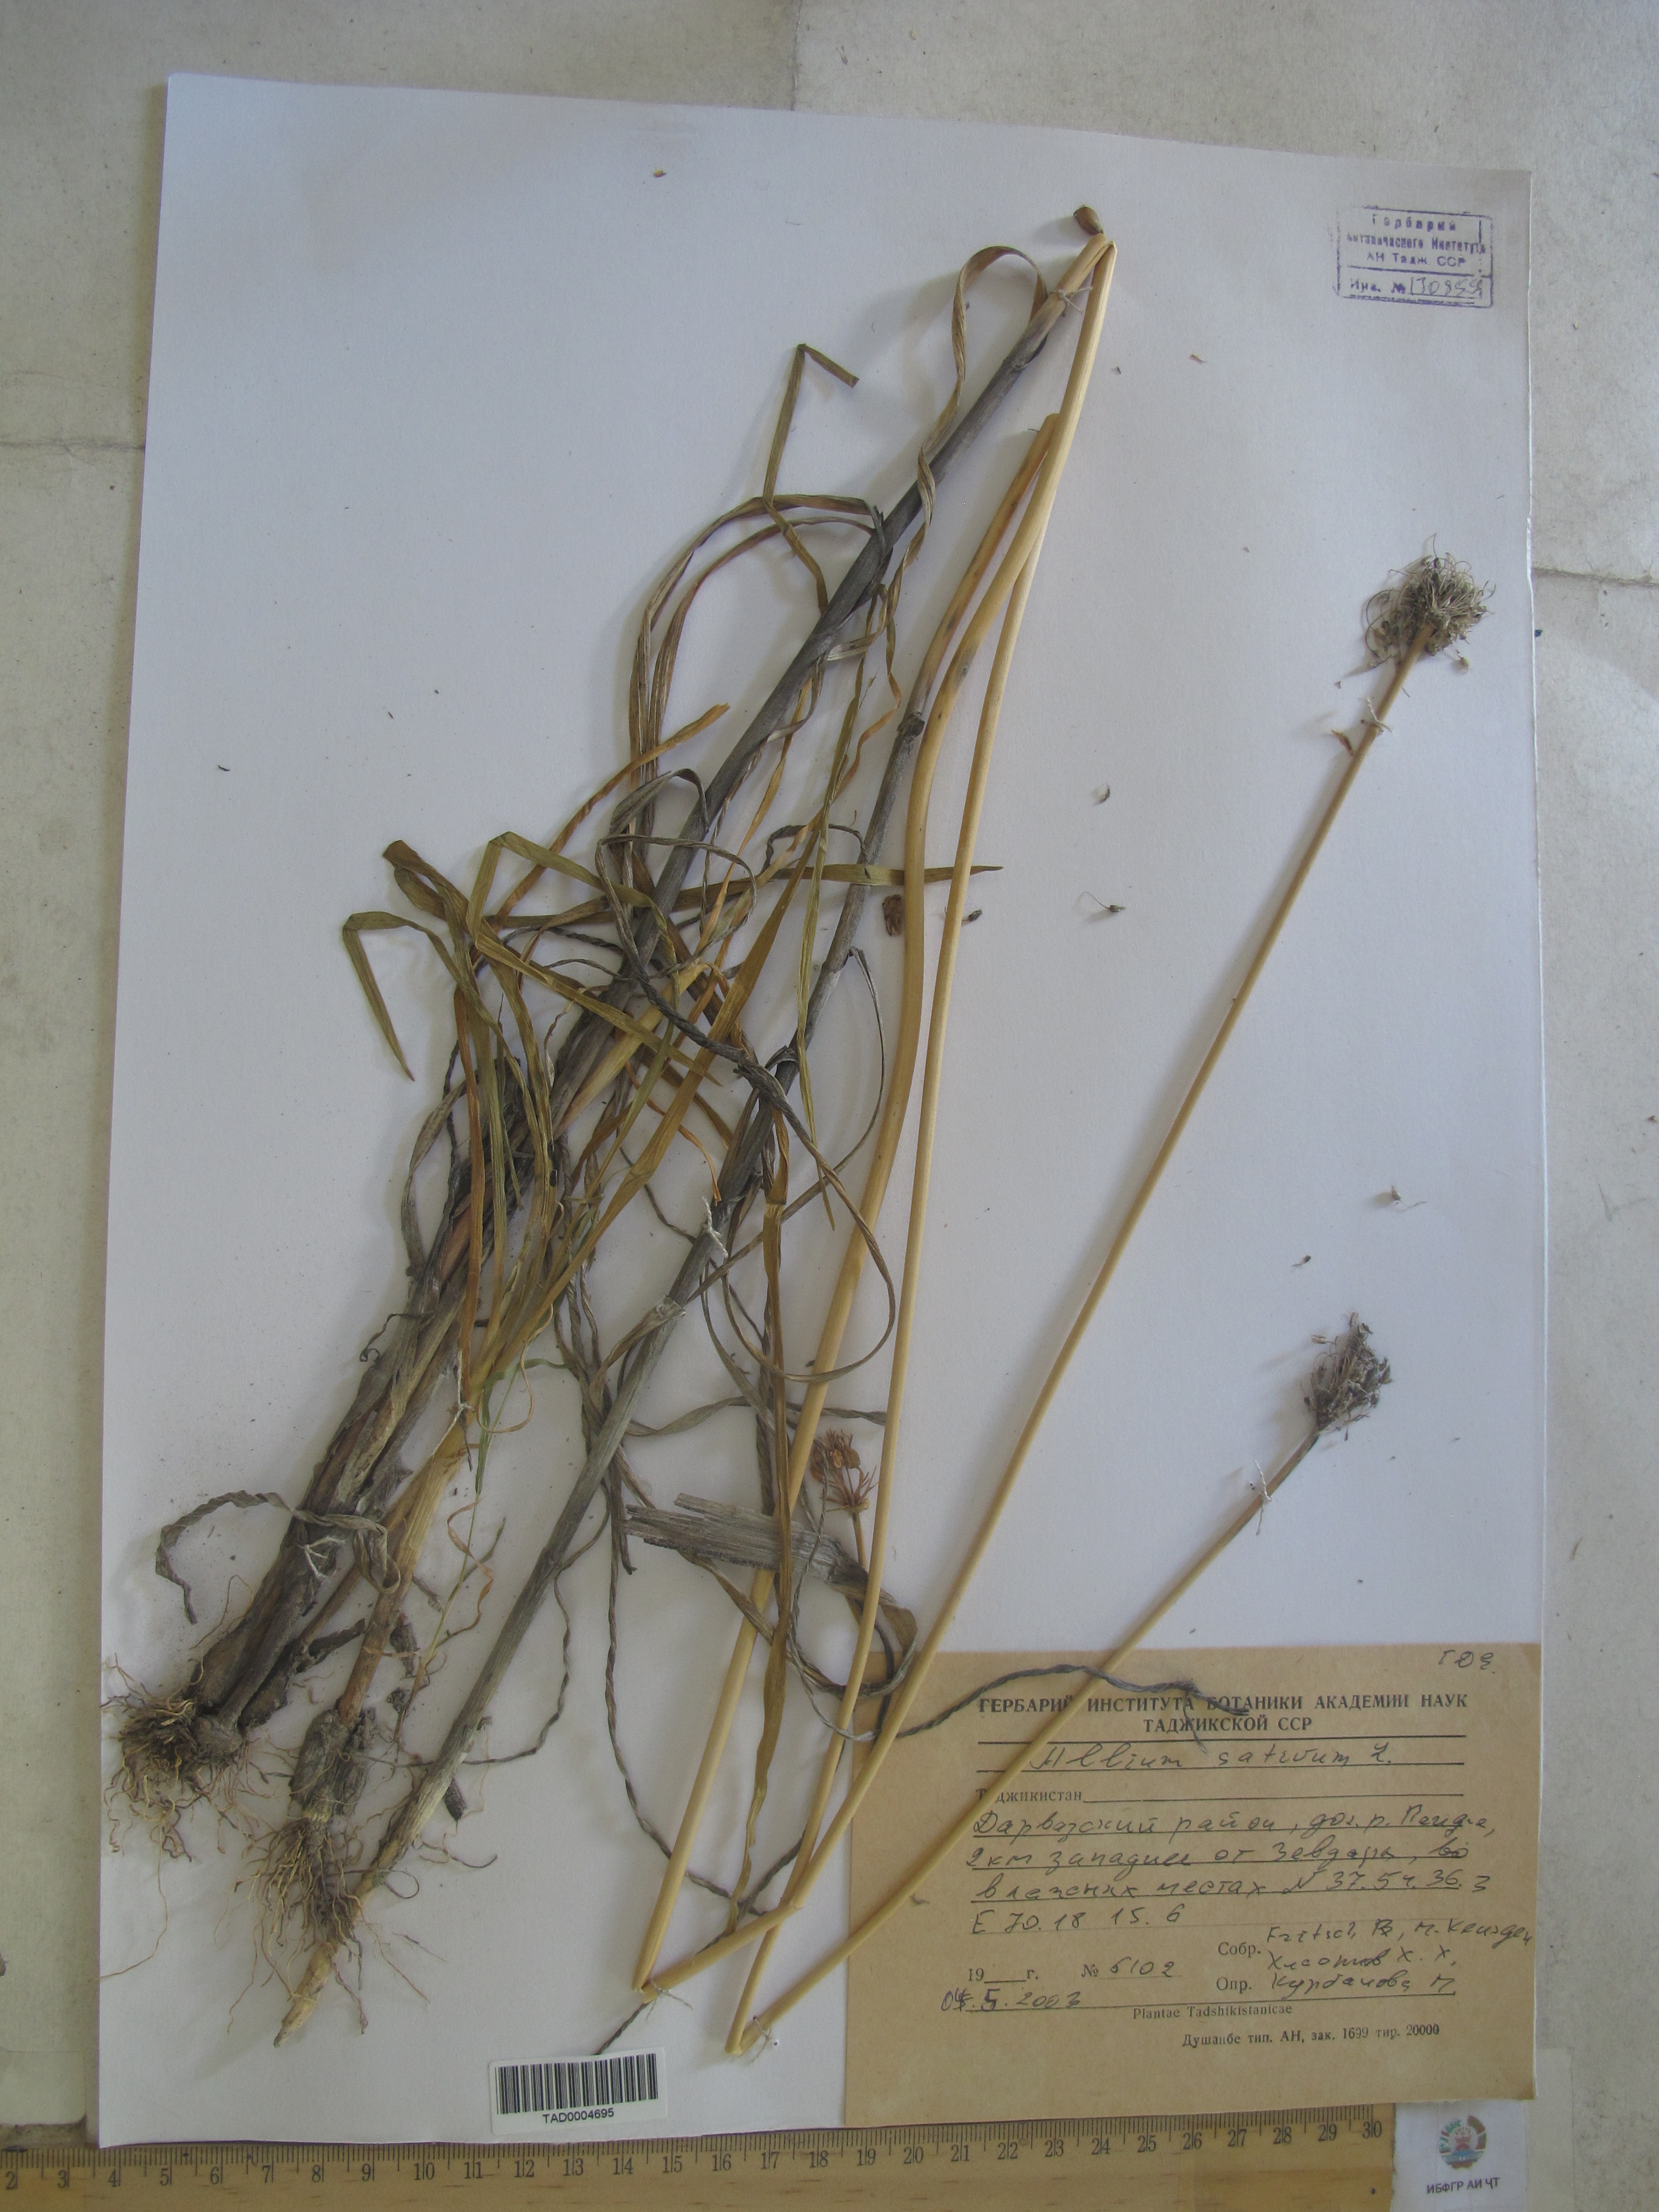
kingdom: Plantae
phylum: Tracheophyta
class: Liliopsida
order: Asparagales
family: Amaryllidaceae
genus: Allium
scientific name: Allium sativum
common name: Garlic
